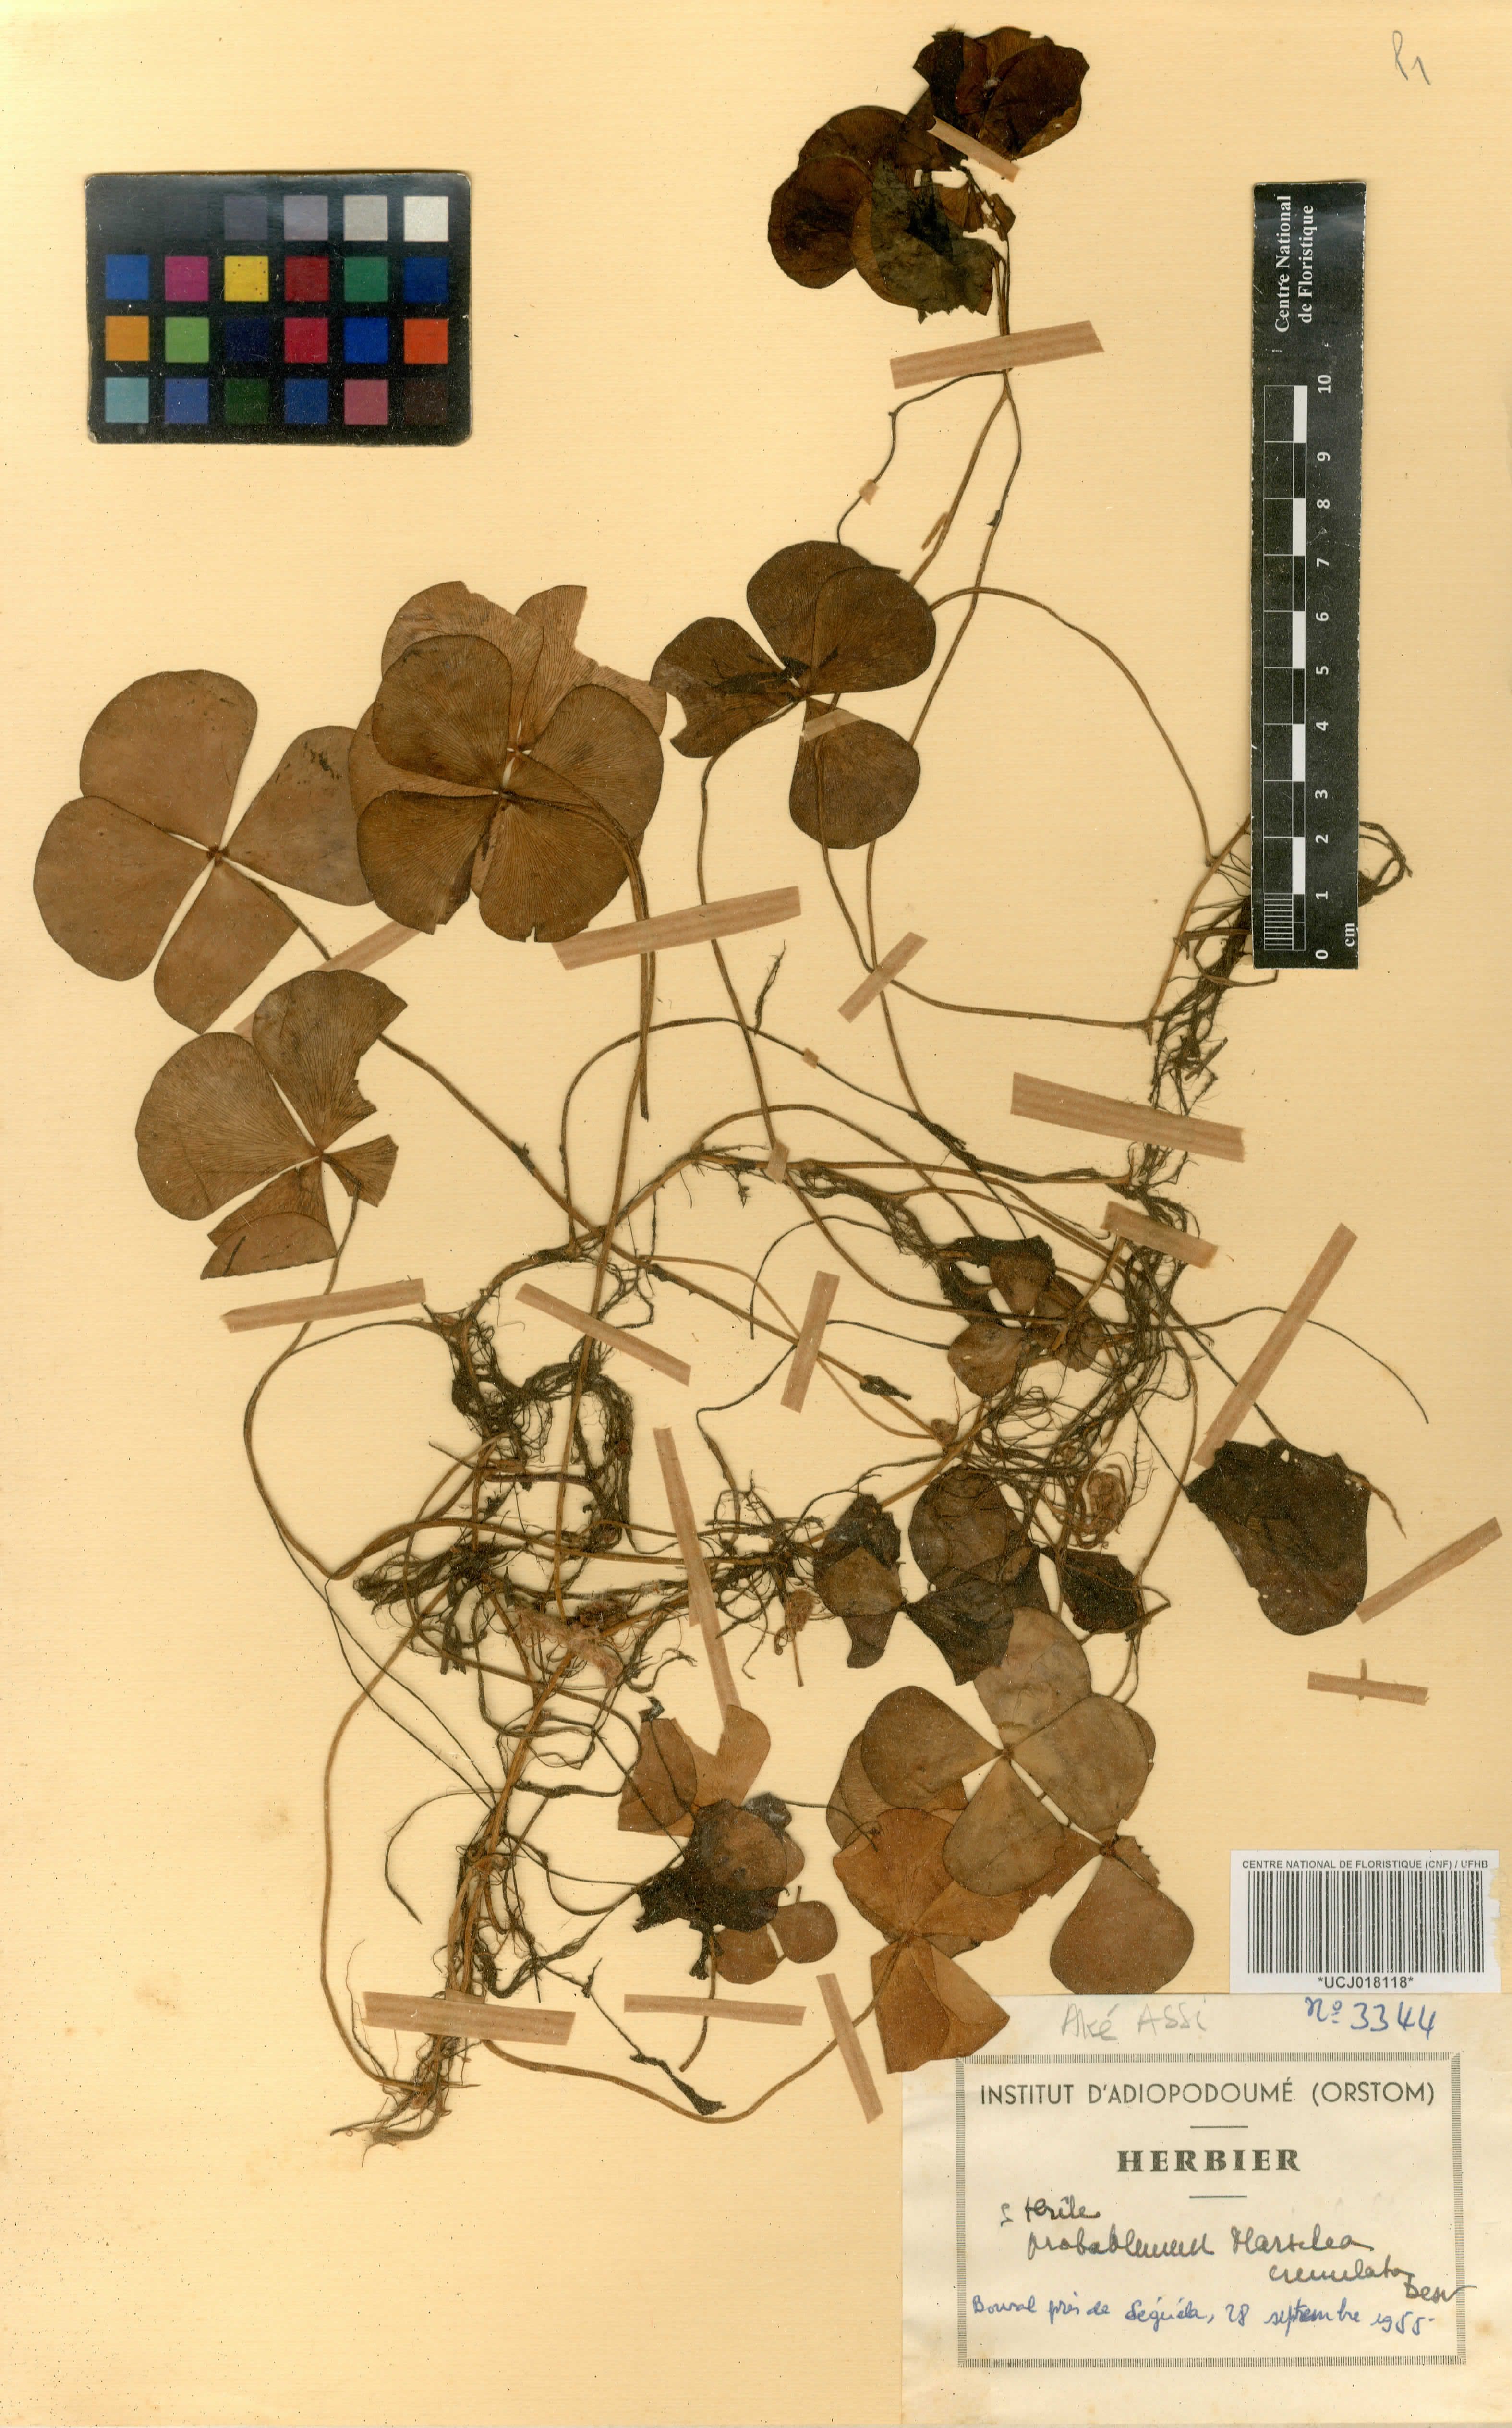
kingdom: Plantae
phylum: Tracheophyta
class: Polypodiopsida
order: Salviniales
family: Marsileaceae
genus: Marsilea
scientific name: Marsilea minuta
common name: Dwarf waterclover
